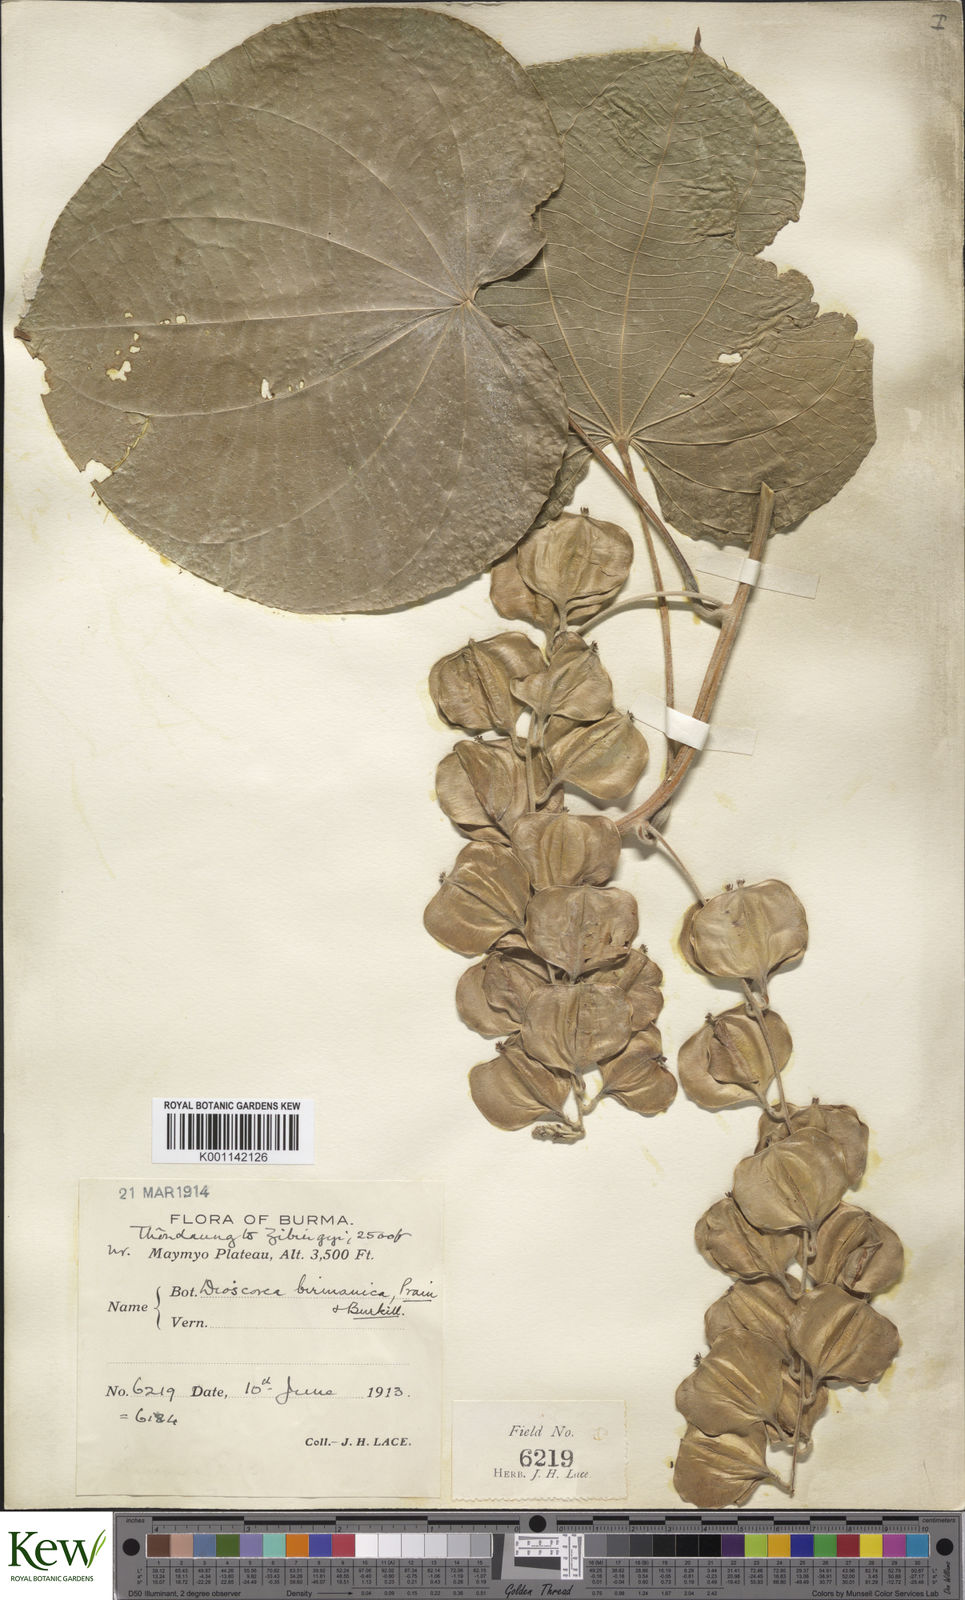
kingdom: Plantae
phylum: Tracheophyta
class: Liliopsida
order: Dioscoreales
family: Dioscoreaceae
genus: Dioscorea
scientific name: Dioscorea birmanica
